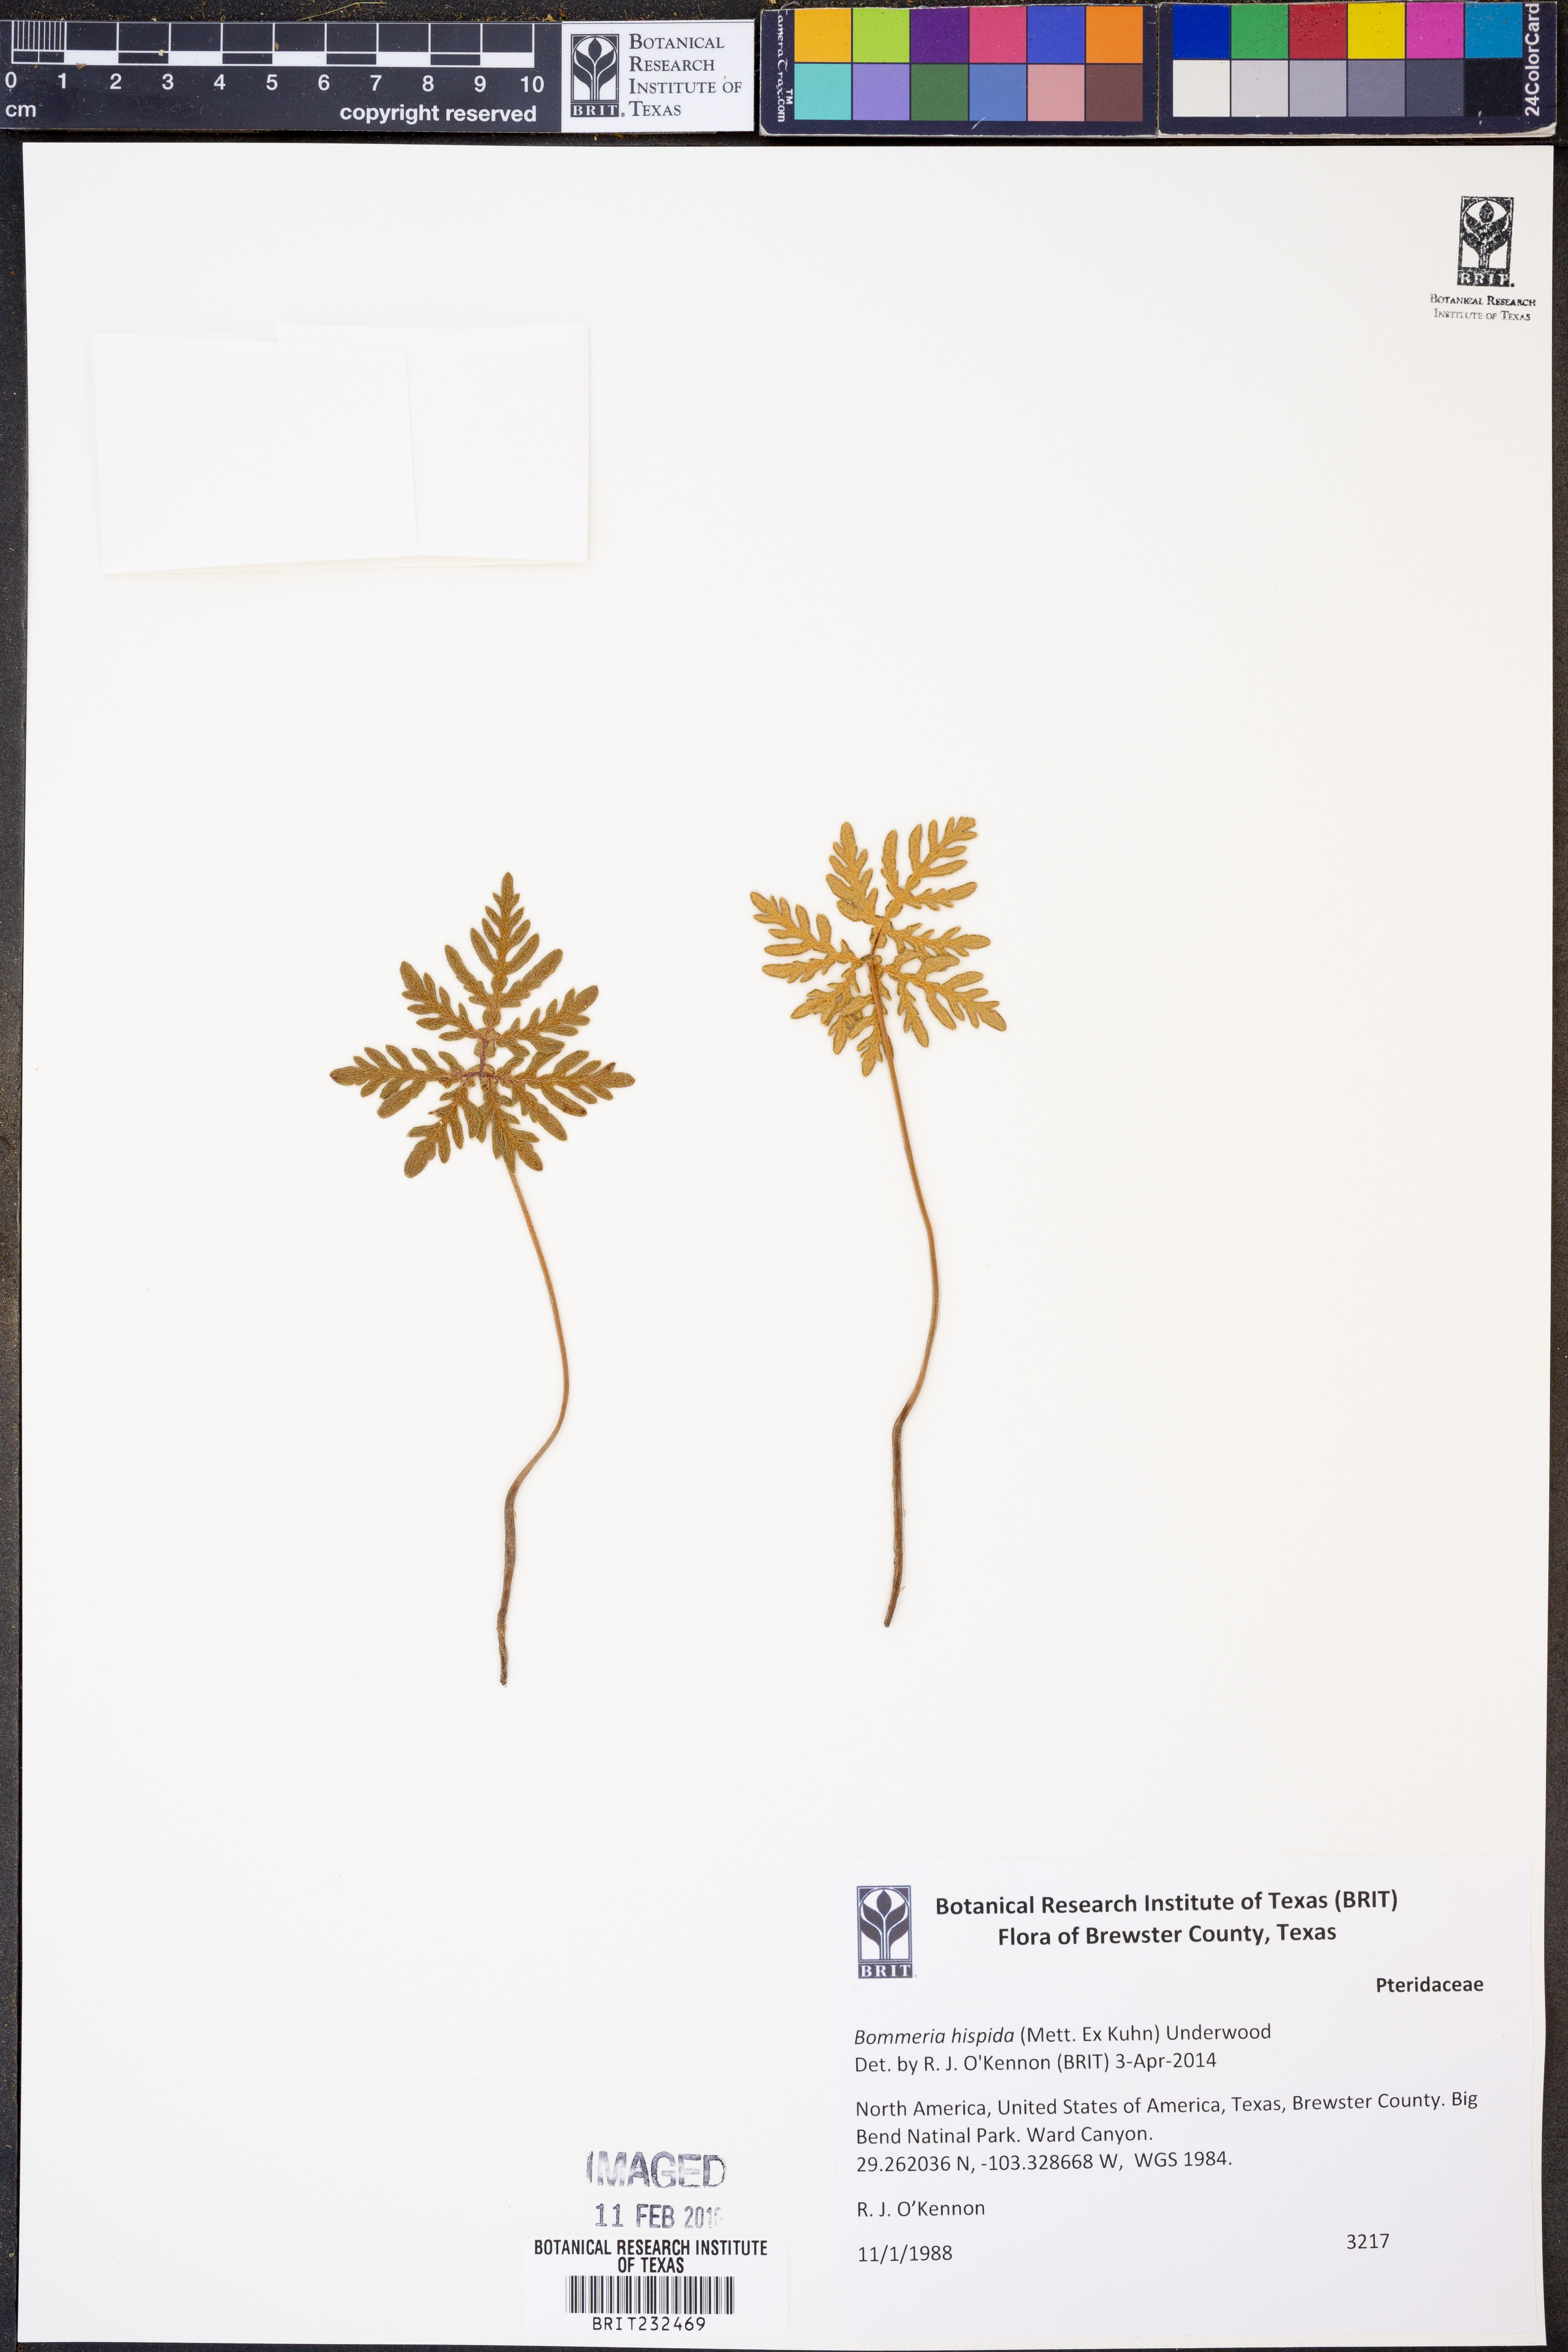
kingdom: Plantae
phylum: Tracheophyta
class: Polypodiopsida
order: Polypodiales
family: Pteridaceae
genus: Bommeria
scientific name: Bommeria hispida
